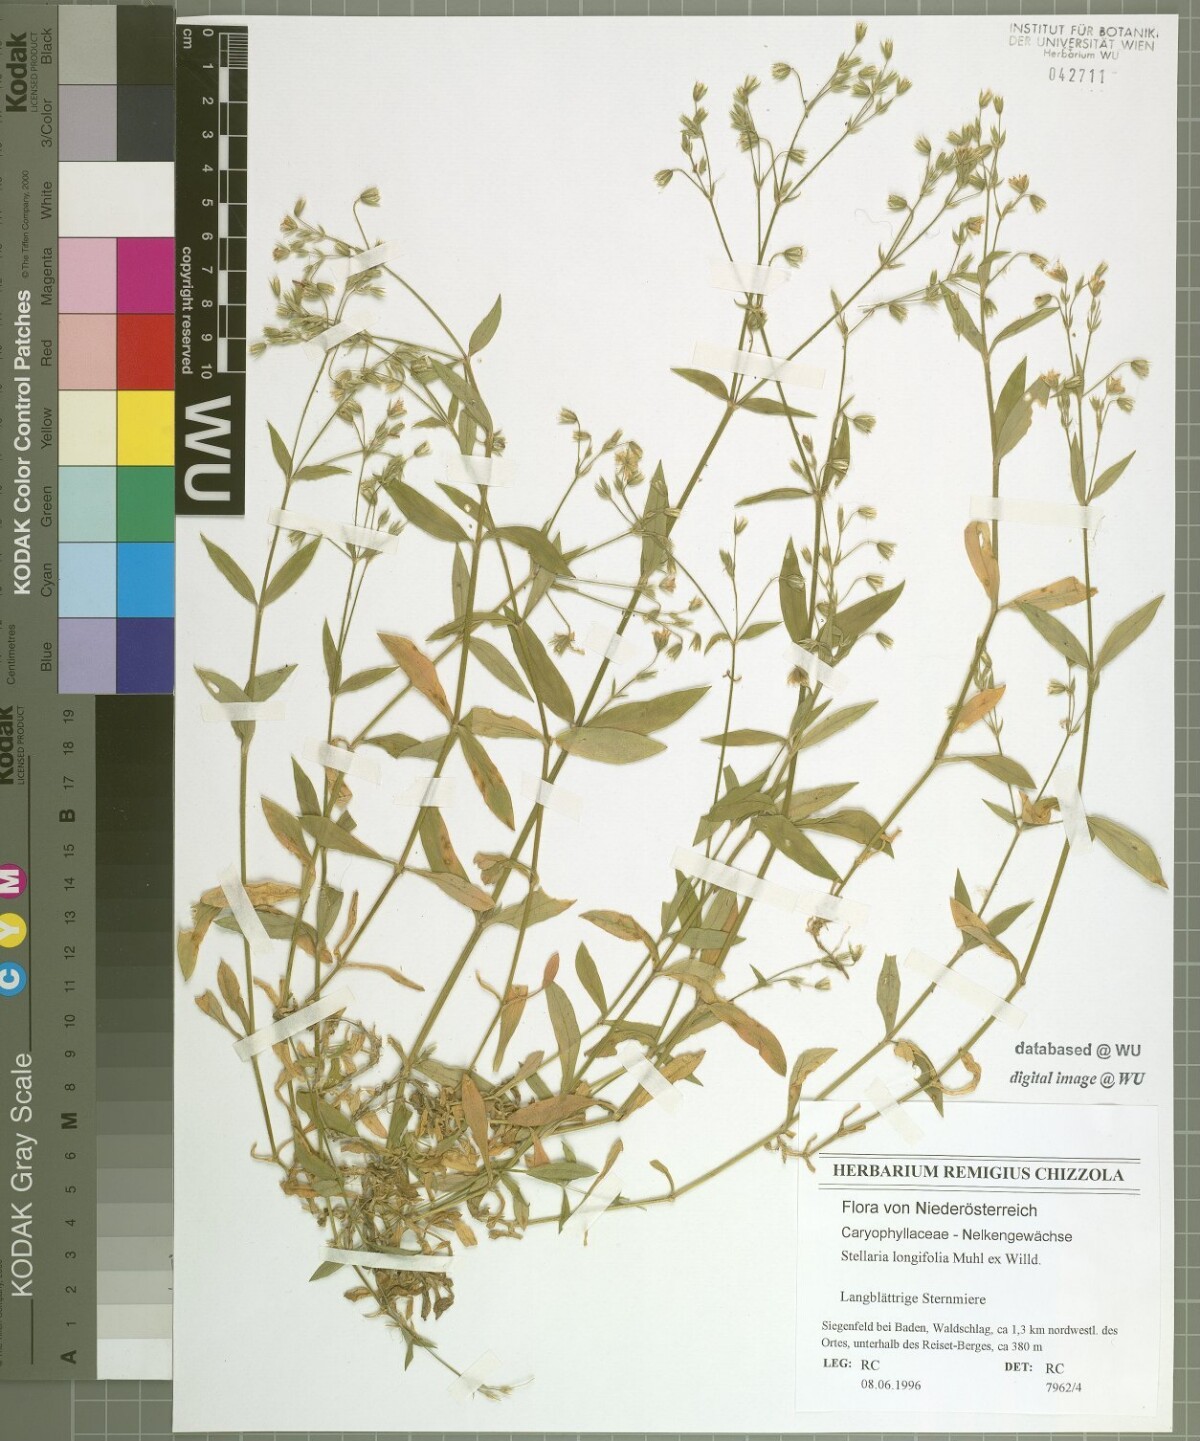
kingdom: Plantae
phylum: Tracheophyta
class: Magnoliopsida
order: Caryophyllales
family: Caryophyllaceae
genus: Cerastium
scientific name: Cerastium sylvaticum
